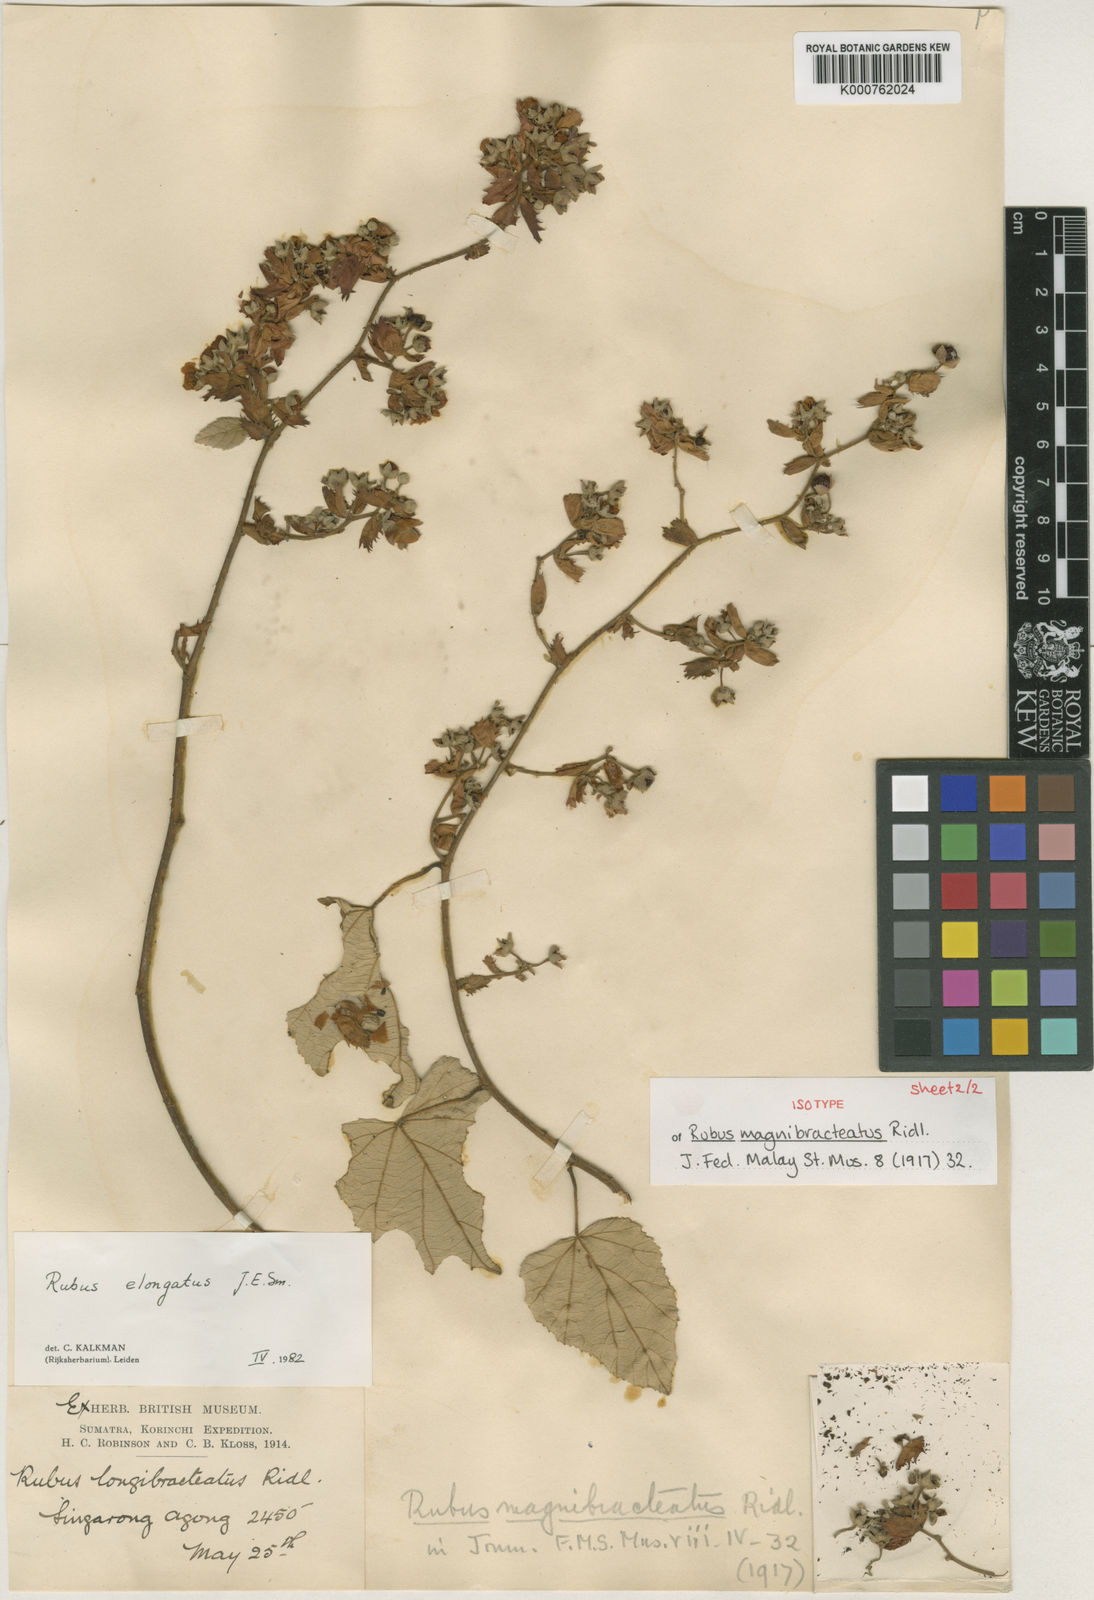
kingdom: Plantae
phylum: Tracheophyta
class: Magnoliopsida
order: Rosales
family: Rosaceae
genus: Rubus
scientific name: Rubus elongatus
